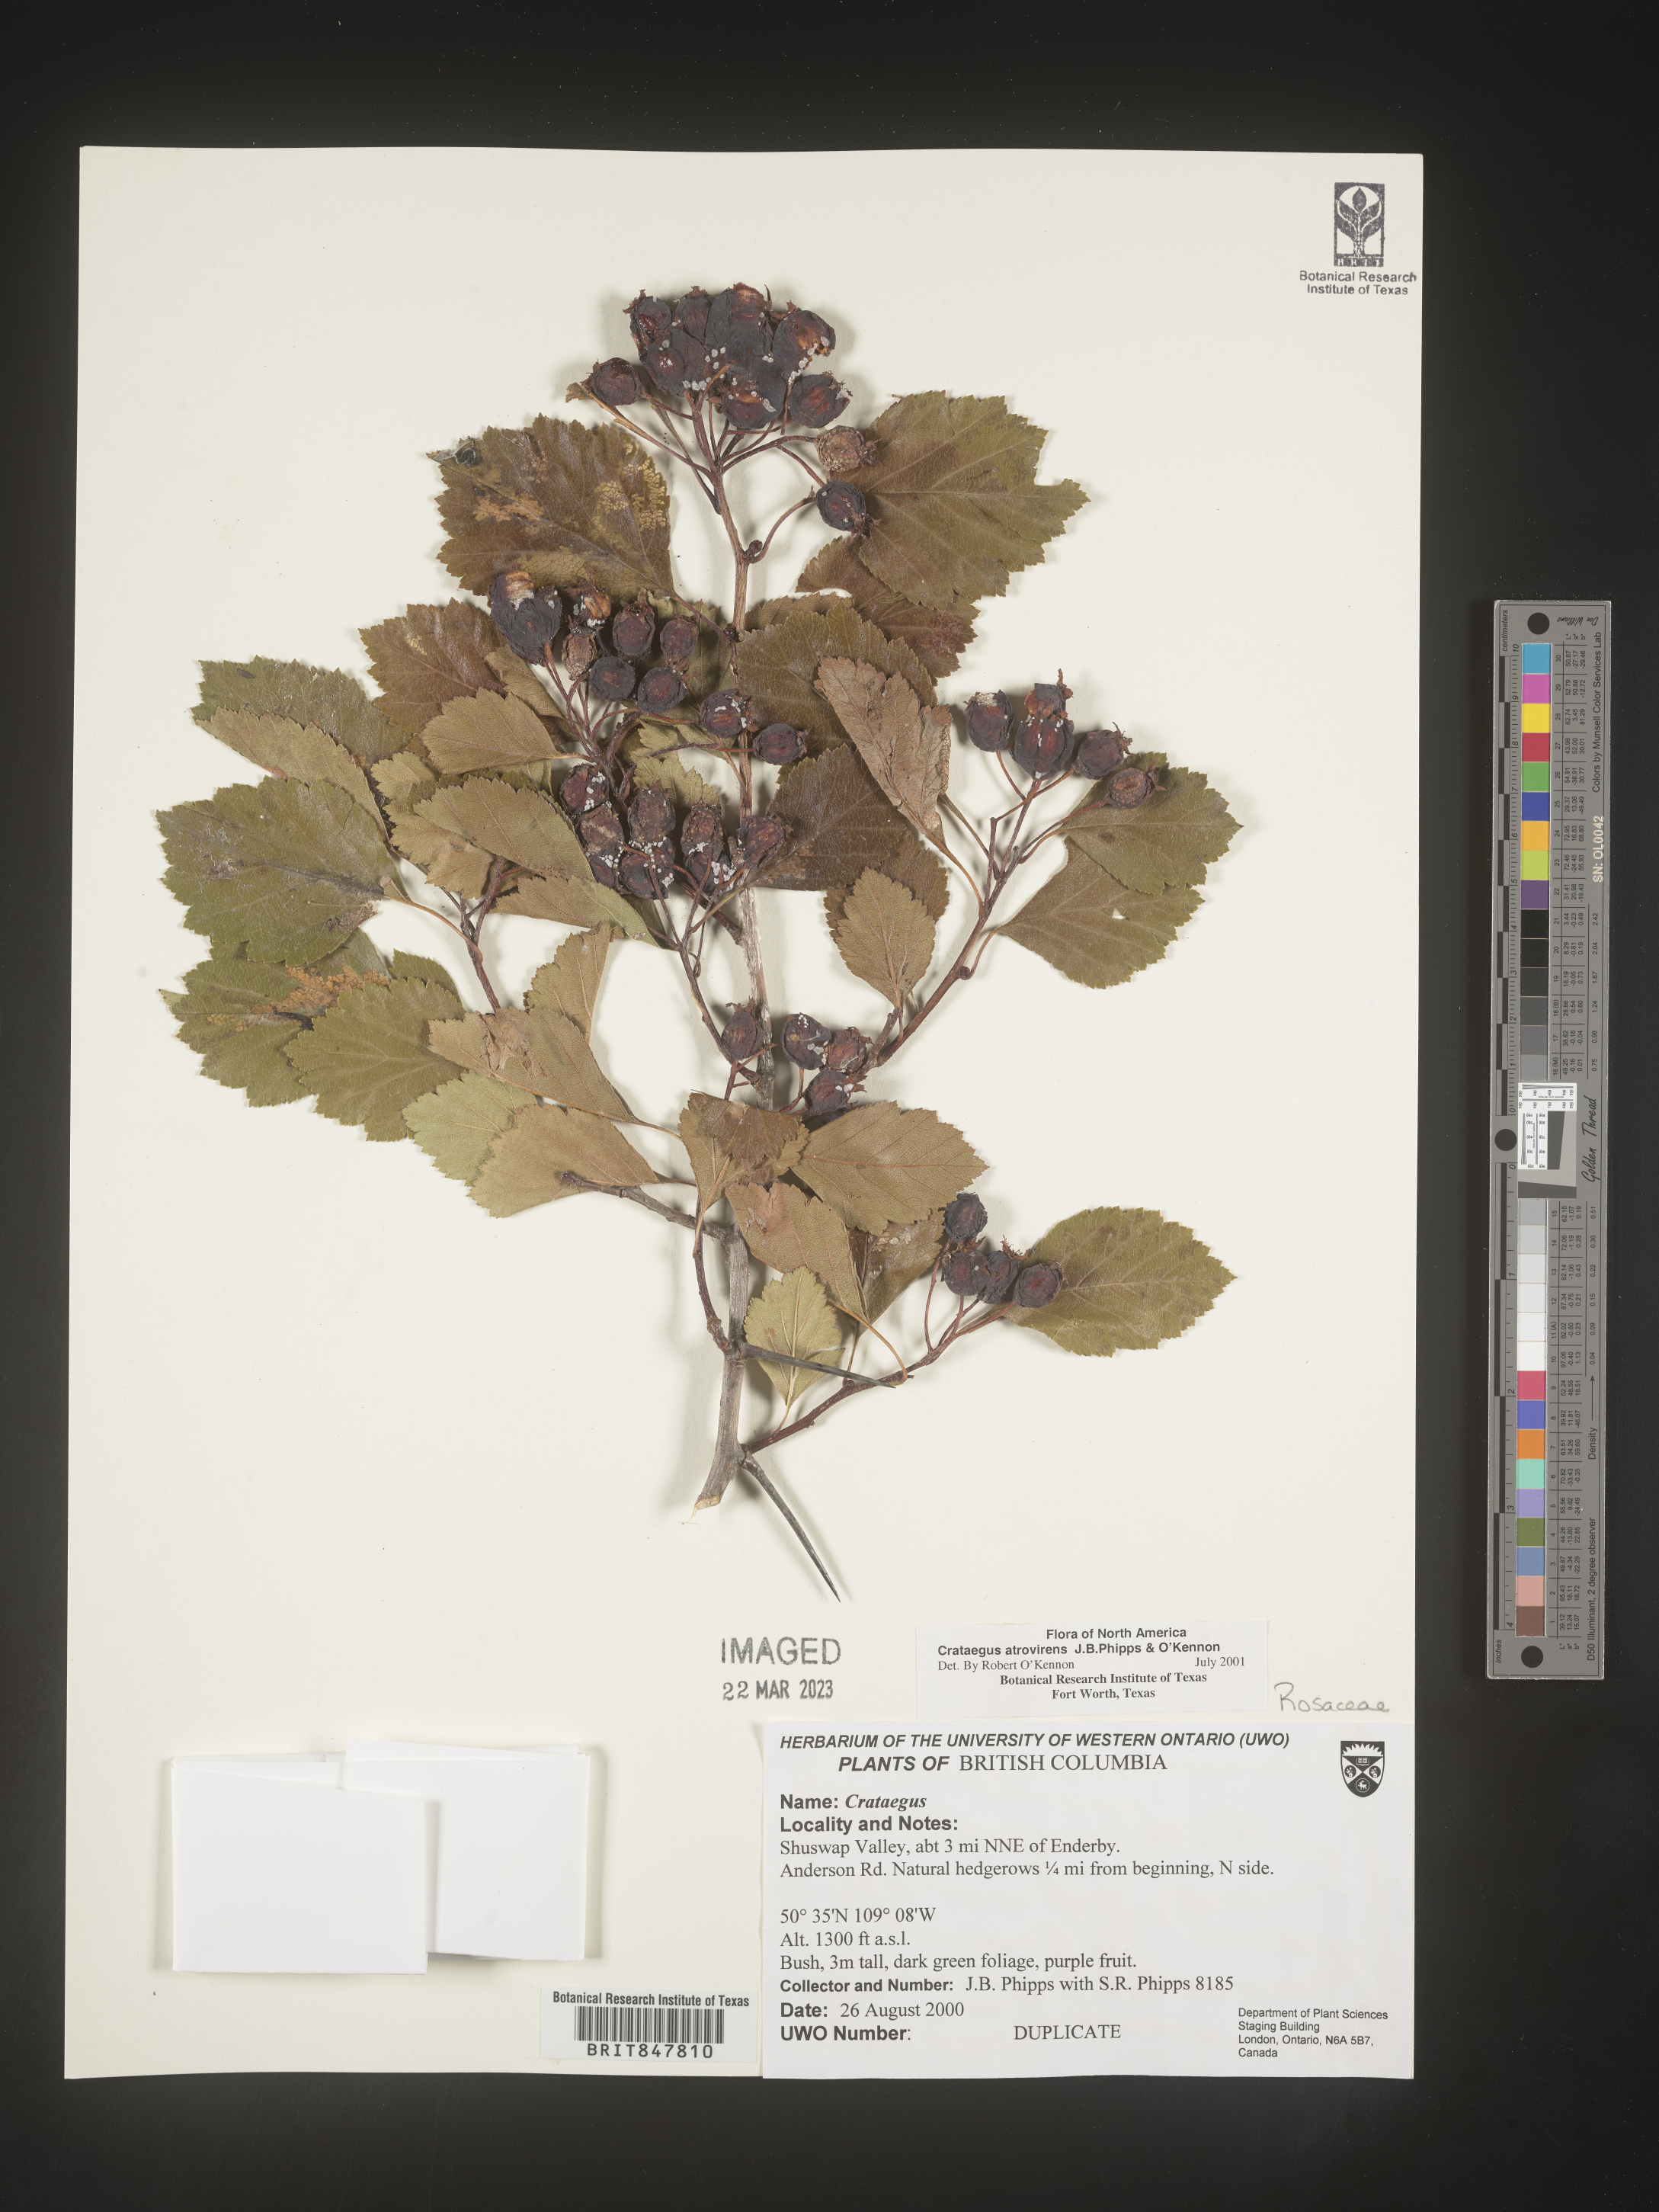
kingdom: Plantae
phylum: Tracheophyta
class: Magnoliopsida
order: Rosales
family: Rosaceae
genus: Crataegus
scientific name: Crataegus
